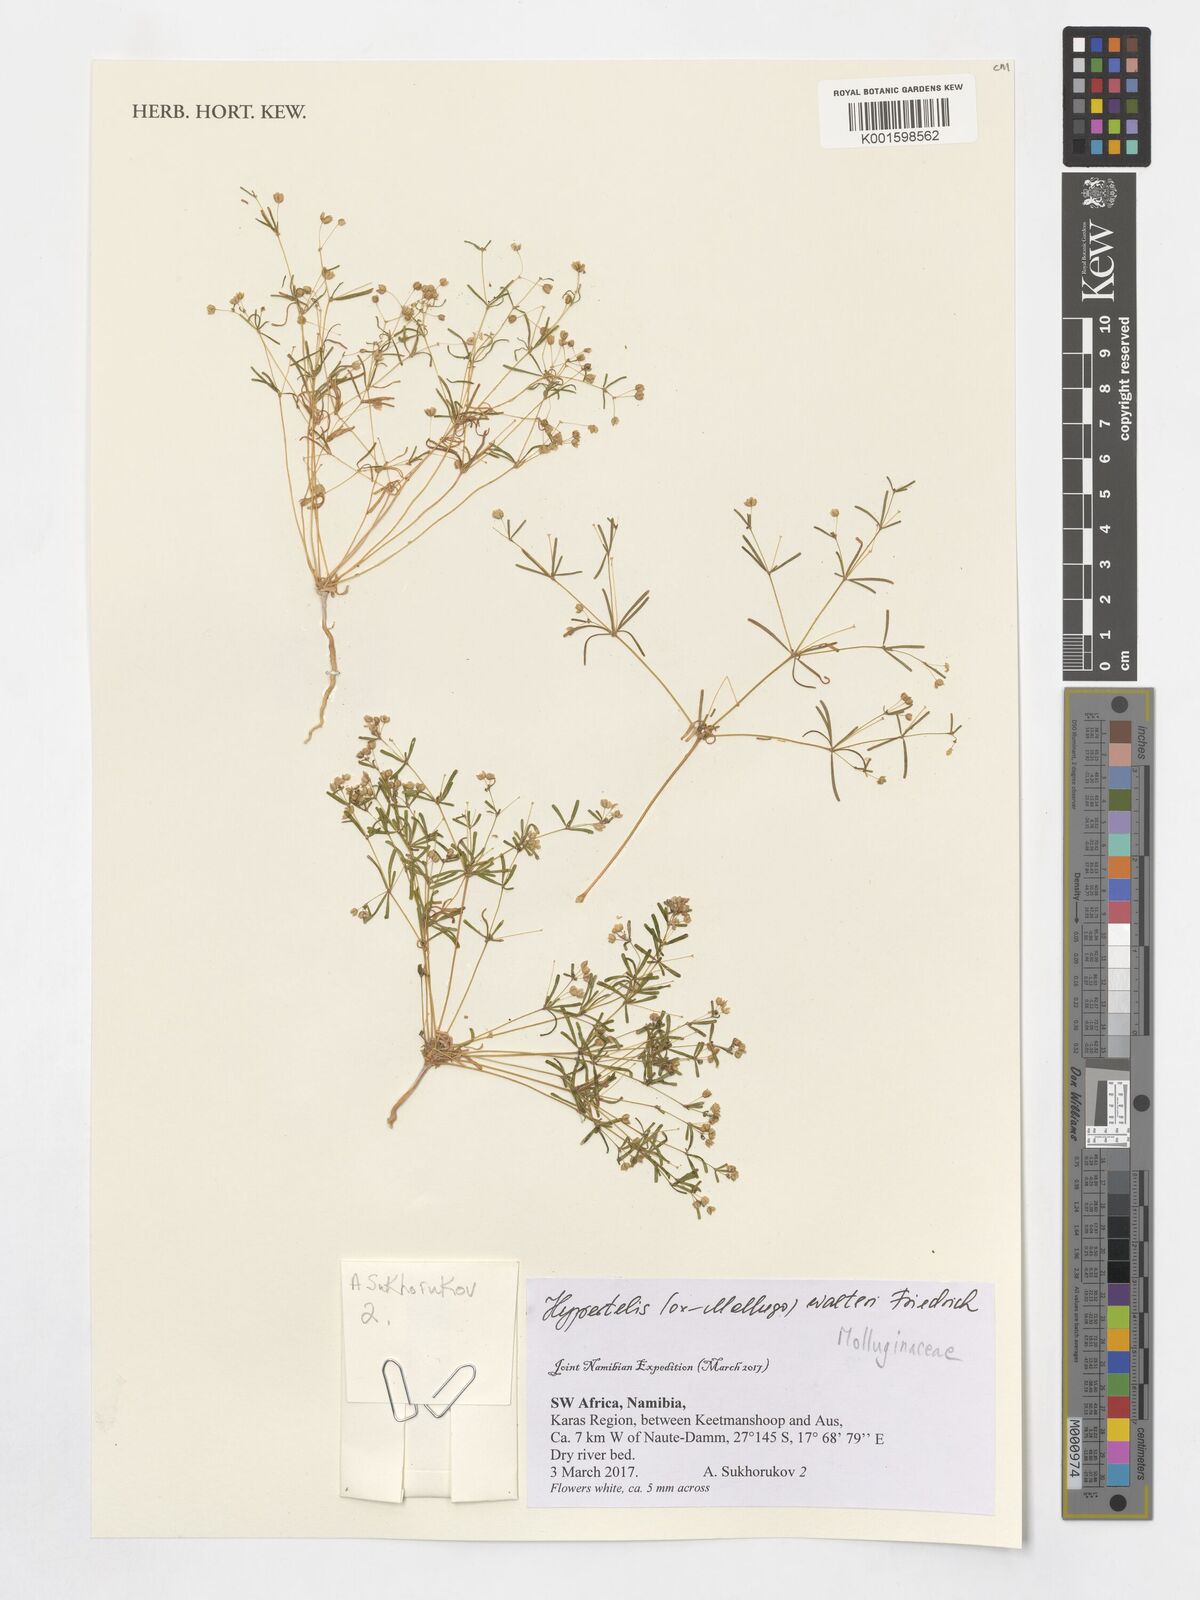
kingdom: Plantae
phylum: Tracheophyta
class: Magnoliopsida
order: Caryophyllales
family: Molluginaceae
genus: Hypertelis
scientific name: Hypertelis walteri
